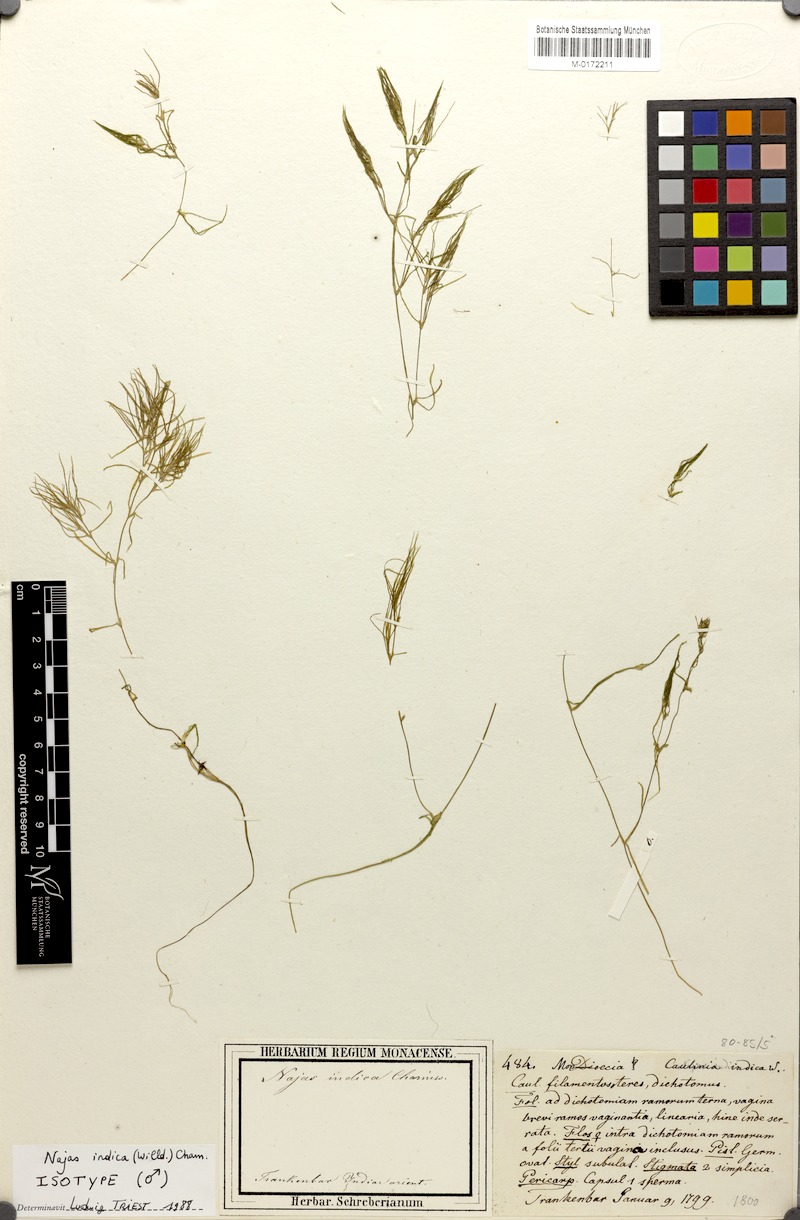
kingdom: Plantae
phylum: Tracheophyta
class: Liliopsida
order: Alismatales
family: Hydrocharitaceae
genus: Najas
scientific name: Najas indica
